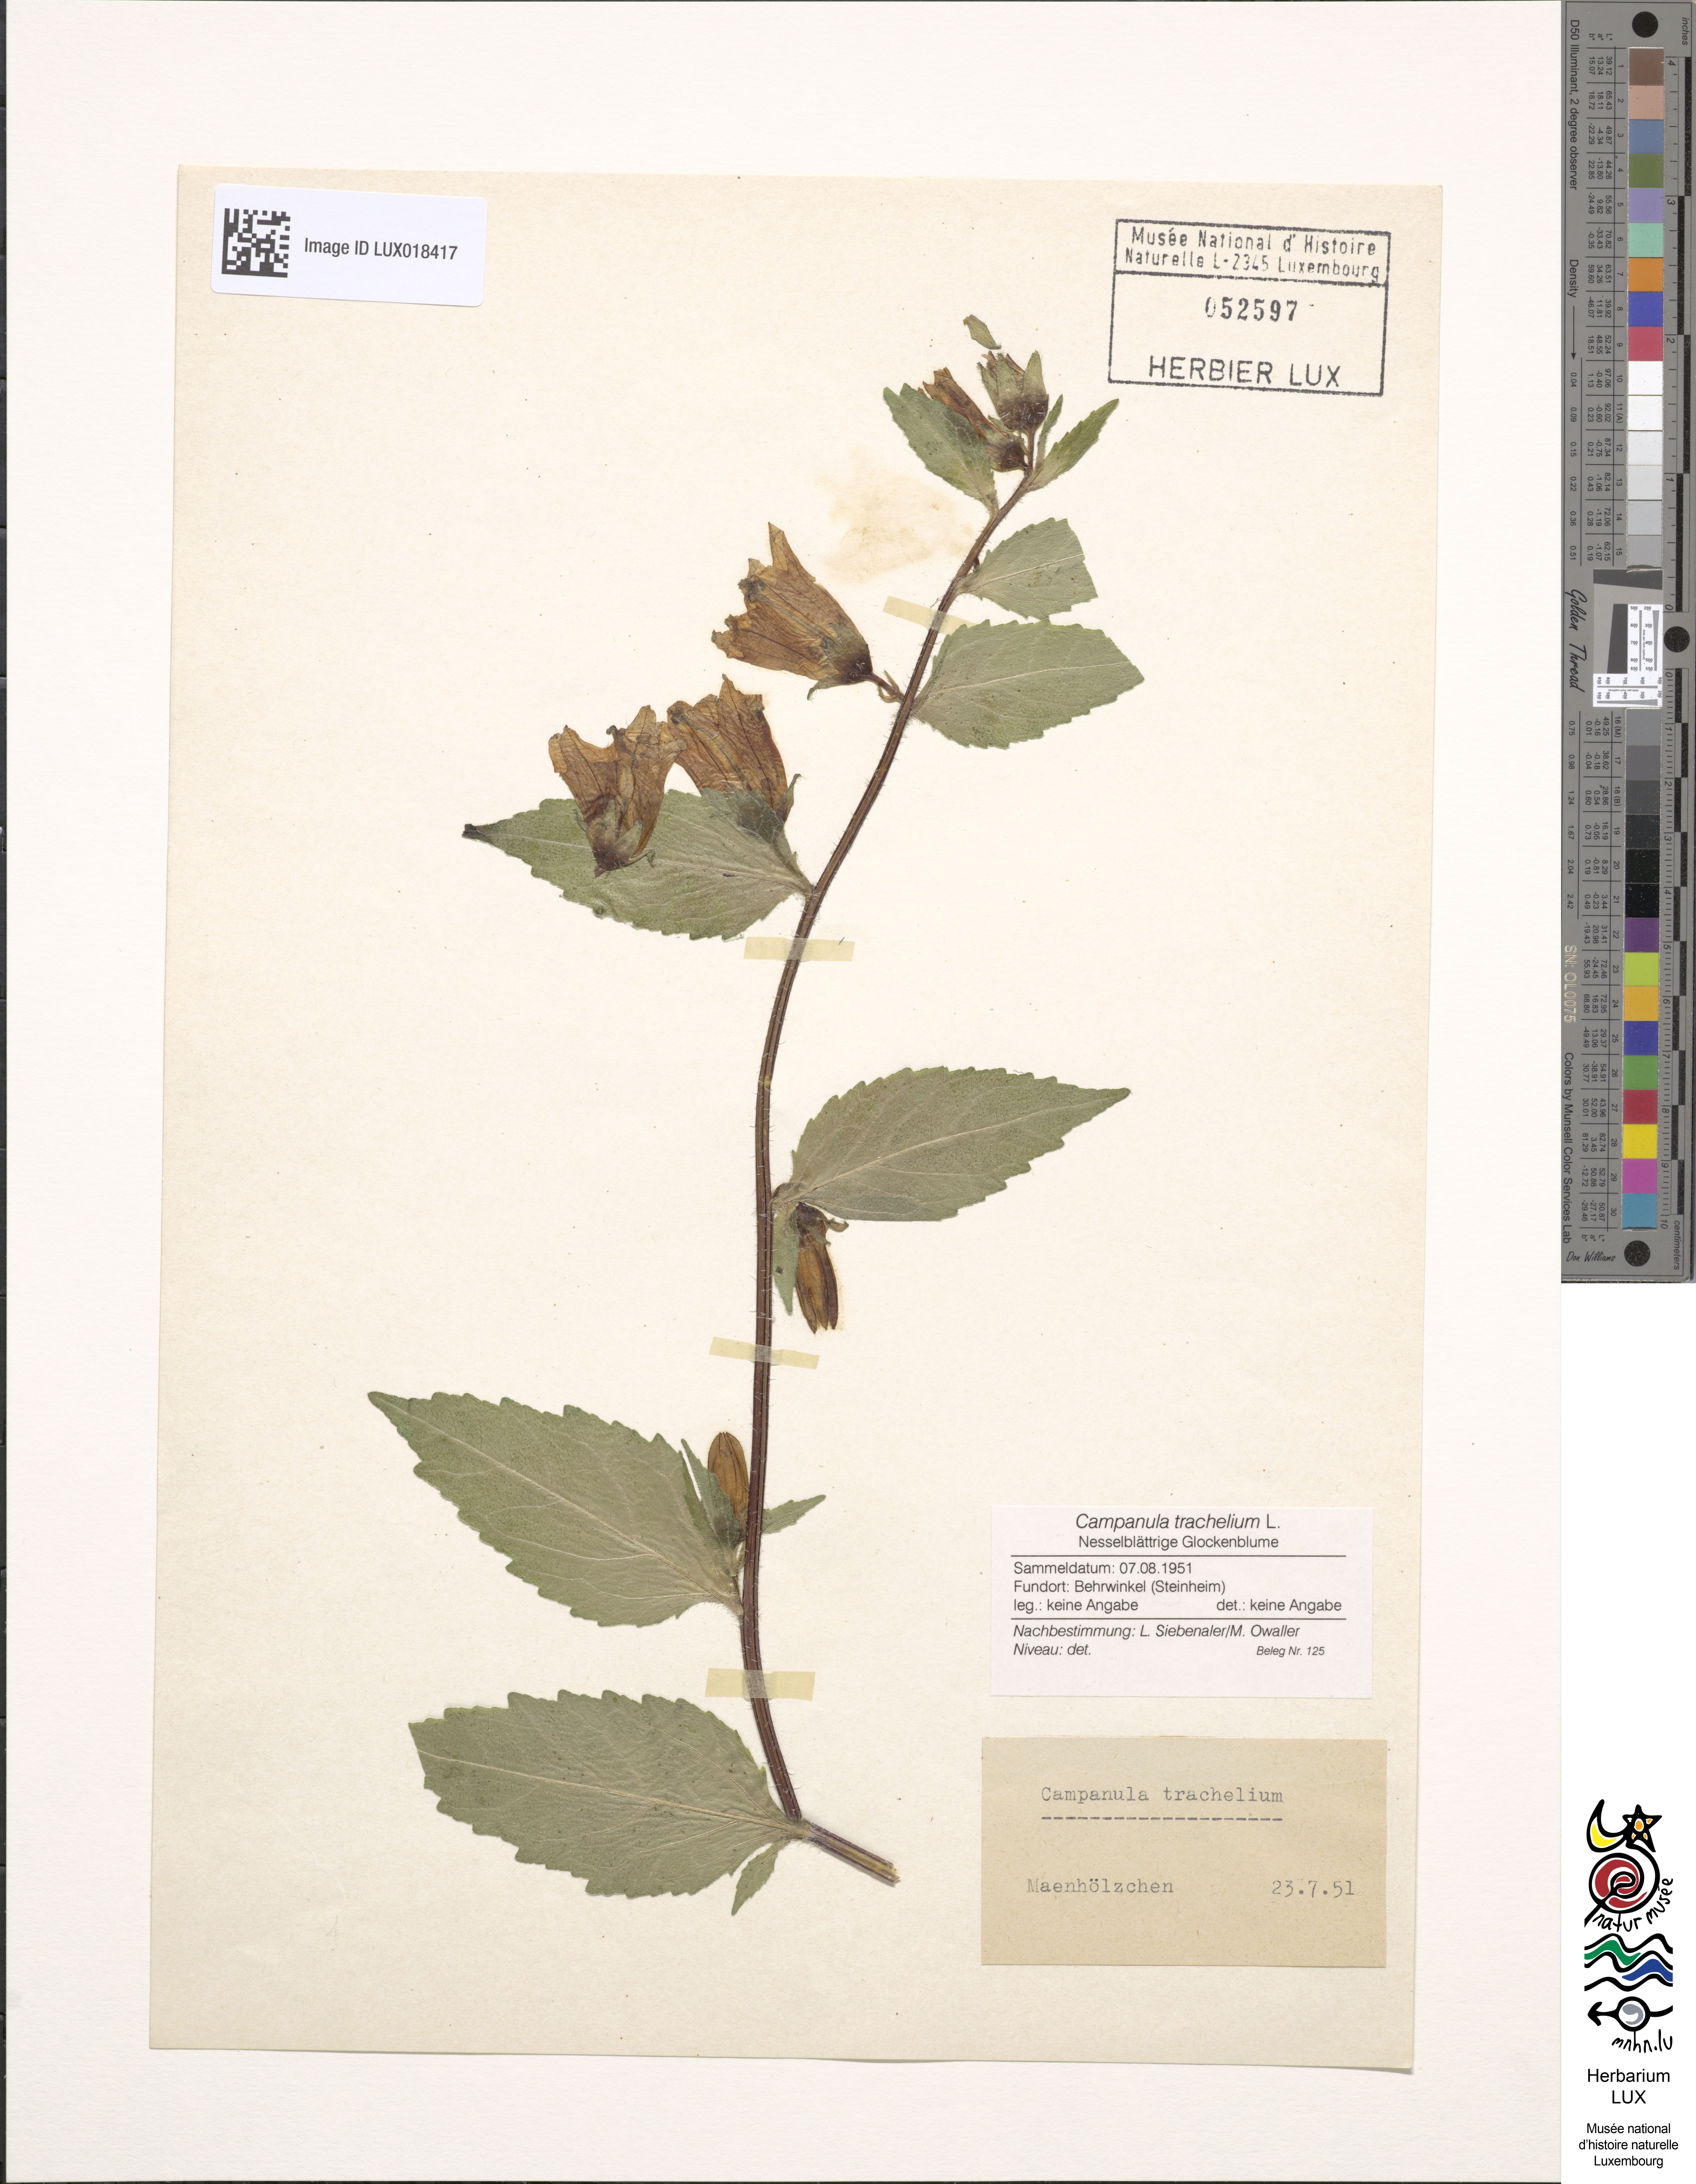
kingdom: Plantae
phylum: Tracheophyta
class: Magnoliopsida
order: Asterales
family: Campanulaceae
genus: Campanula
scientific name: Campanula trachelium
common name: Nettle-leaved bellflower
